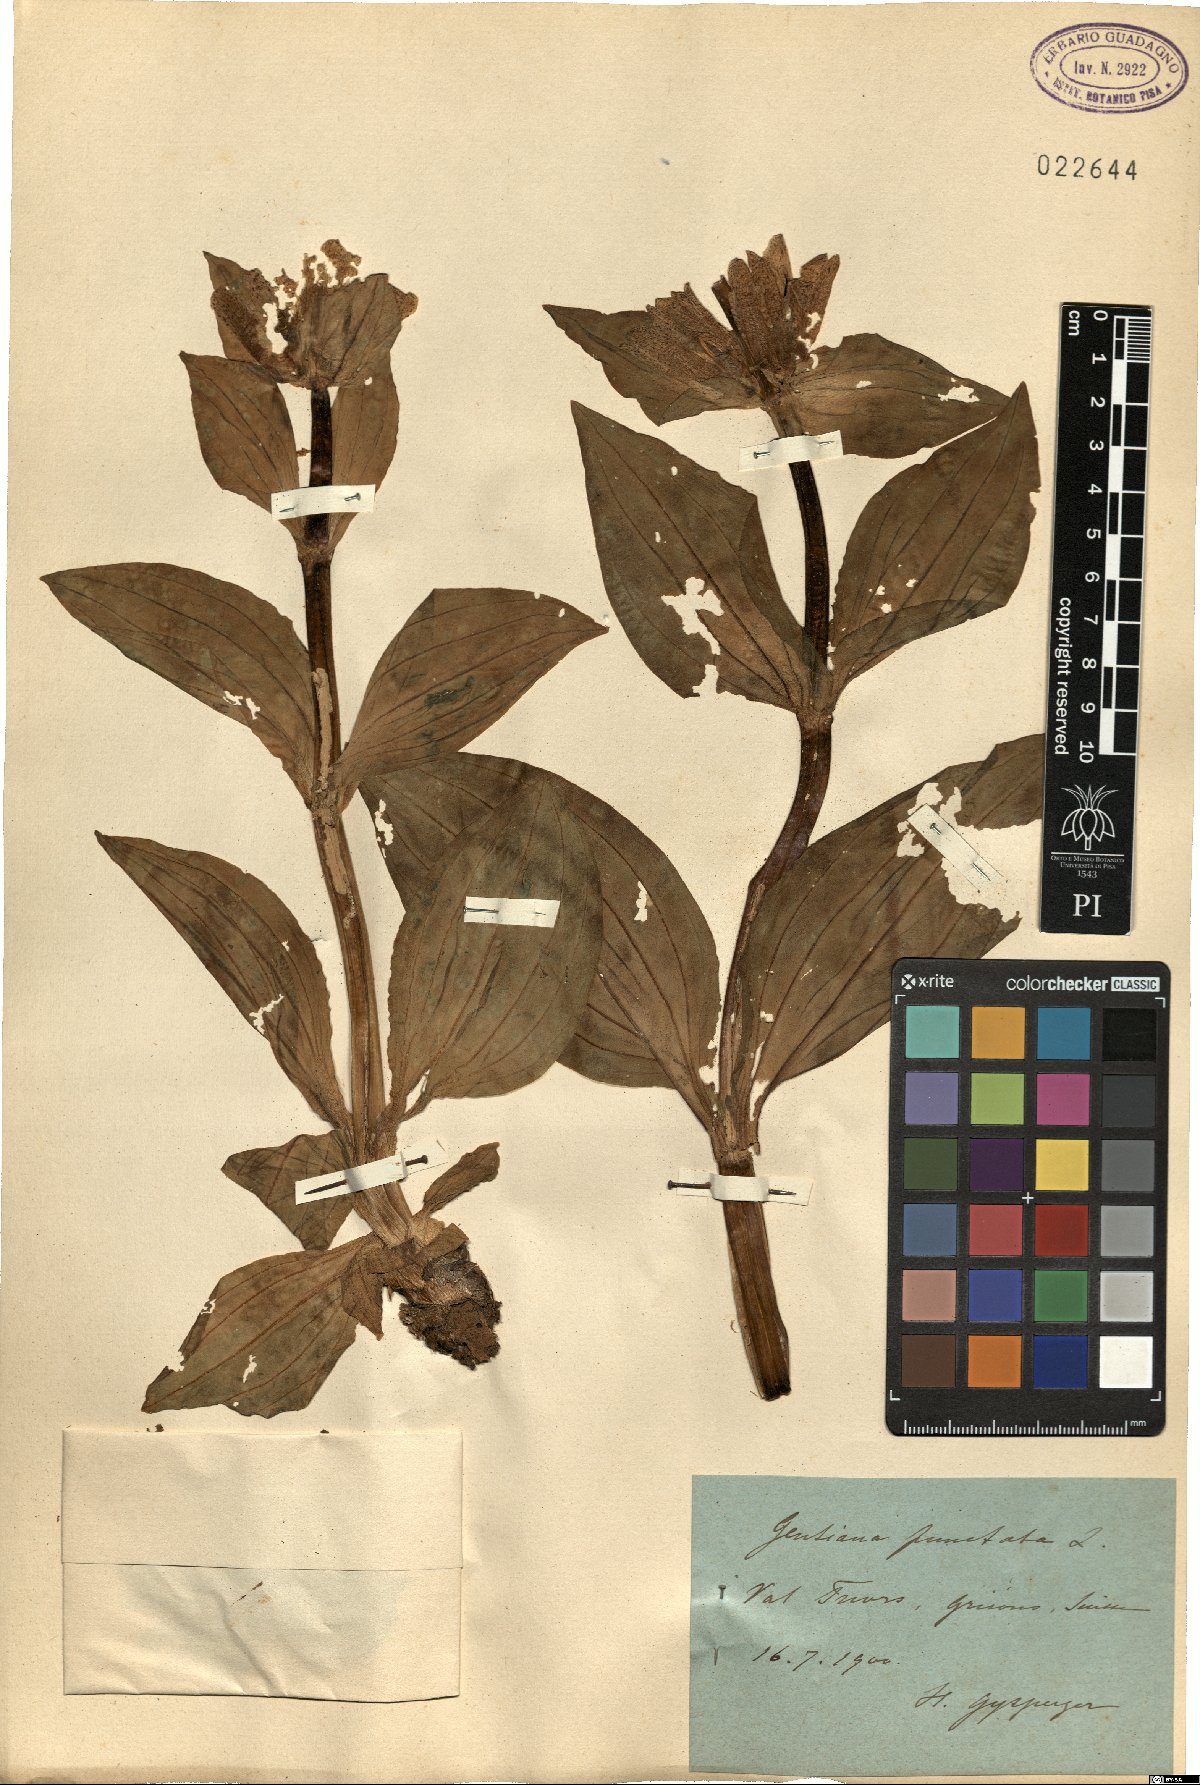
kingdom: Plantae
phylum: Tracheophyta
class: Magnoliopsida
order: Gentianales
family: Gentianaceae
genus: Gentiana
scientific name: Gentiana punctata
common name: Spotted gentian
